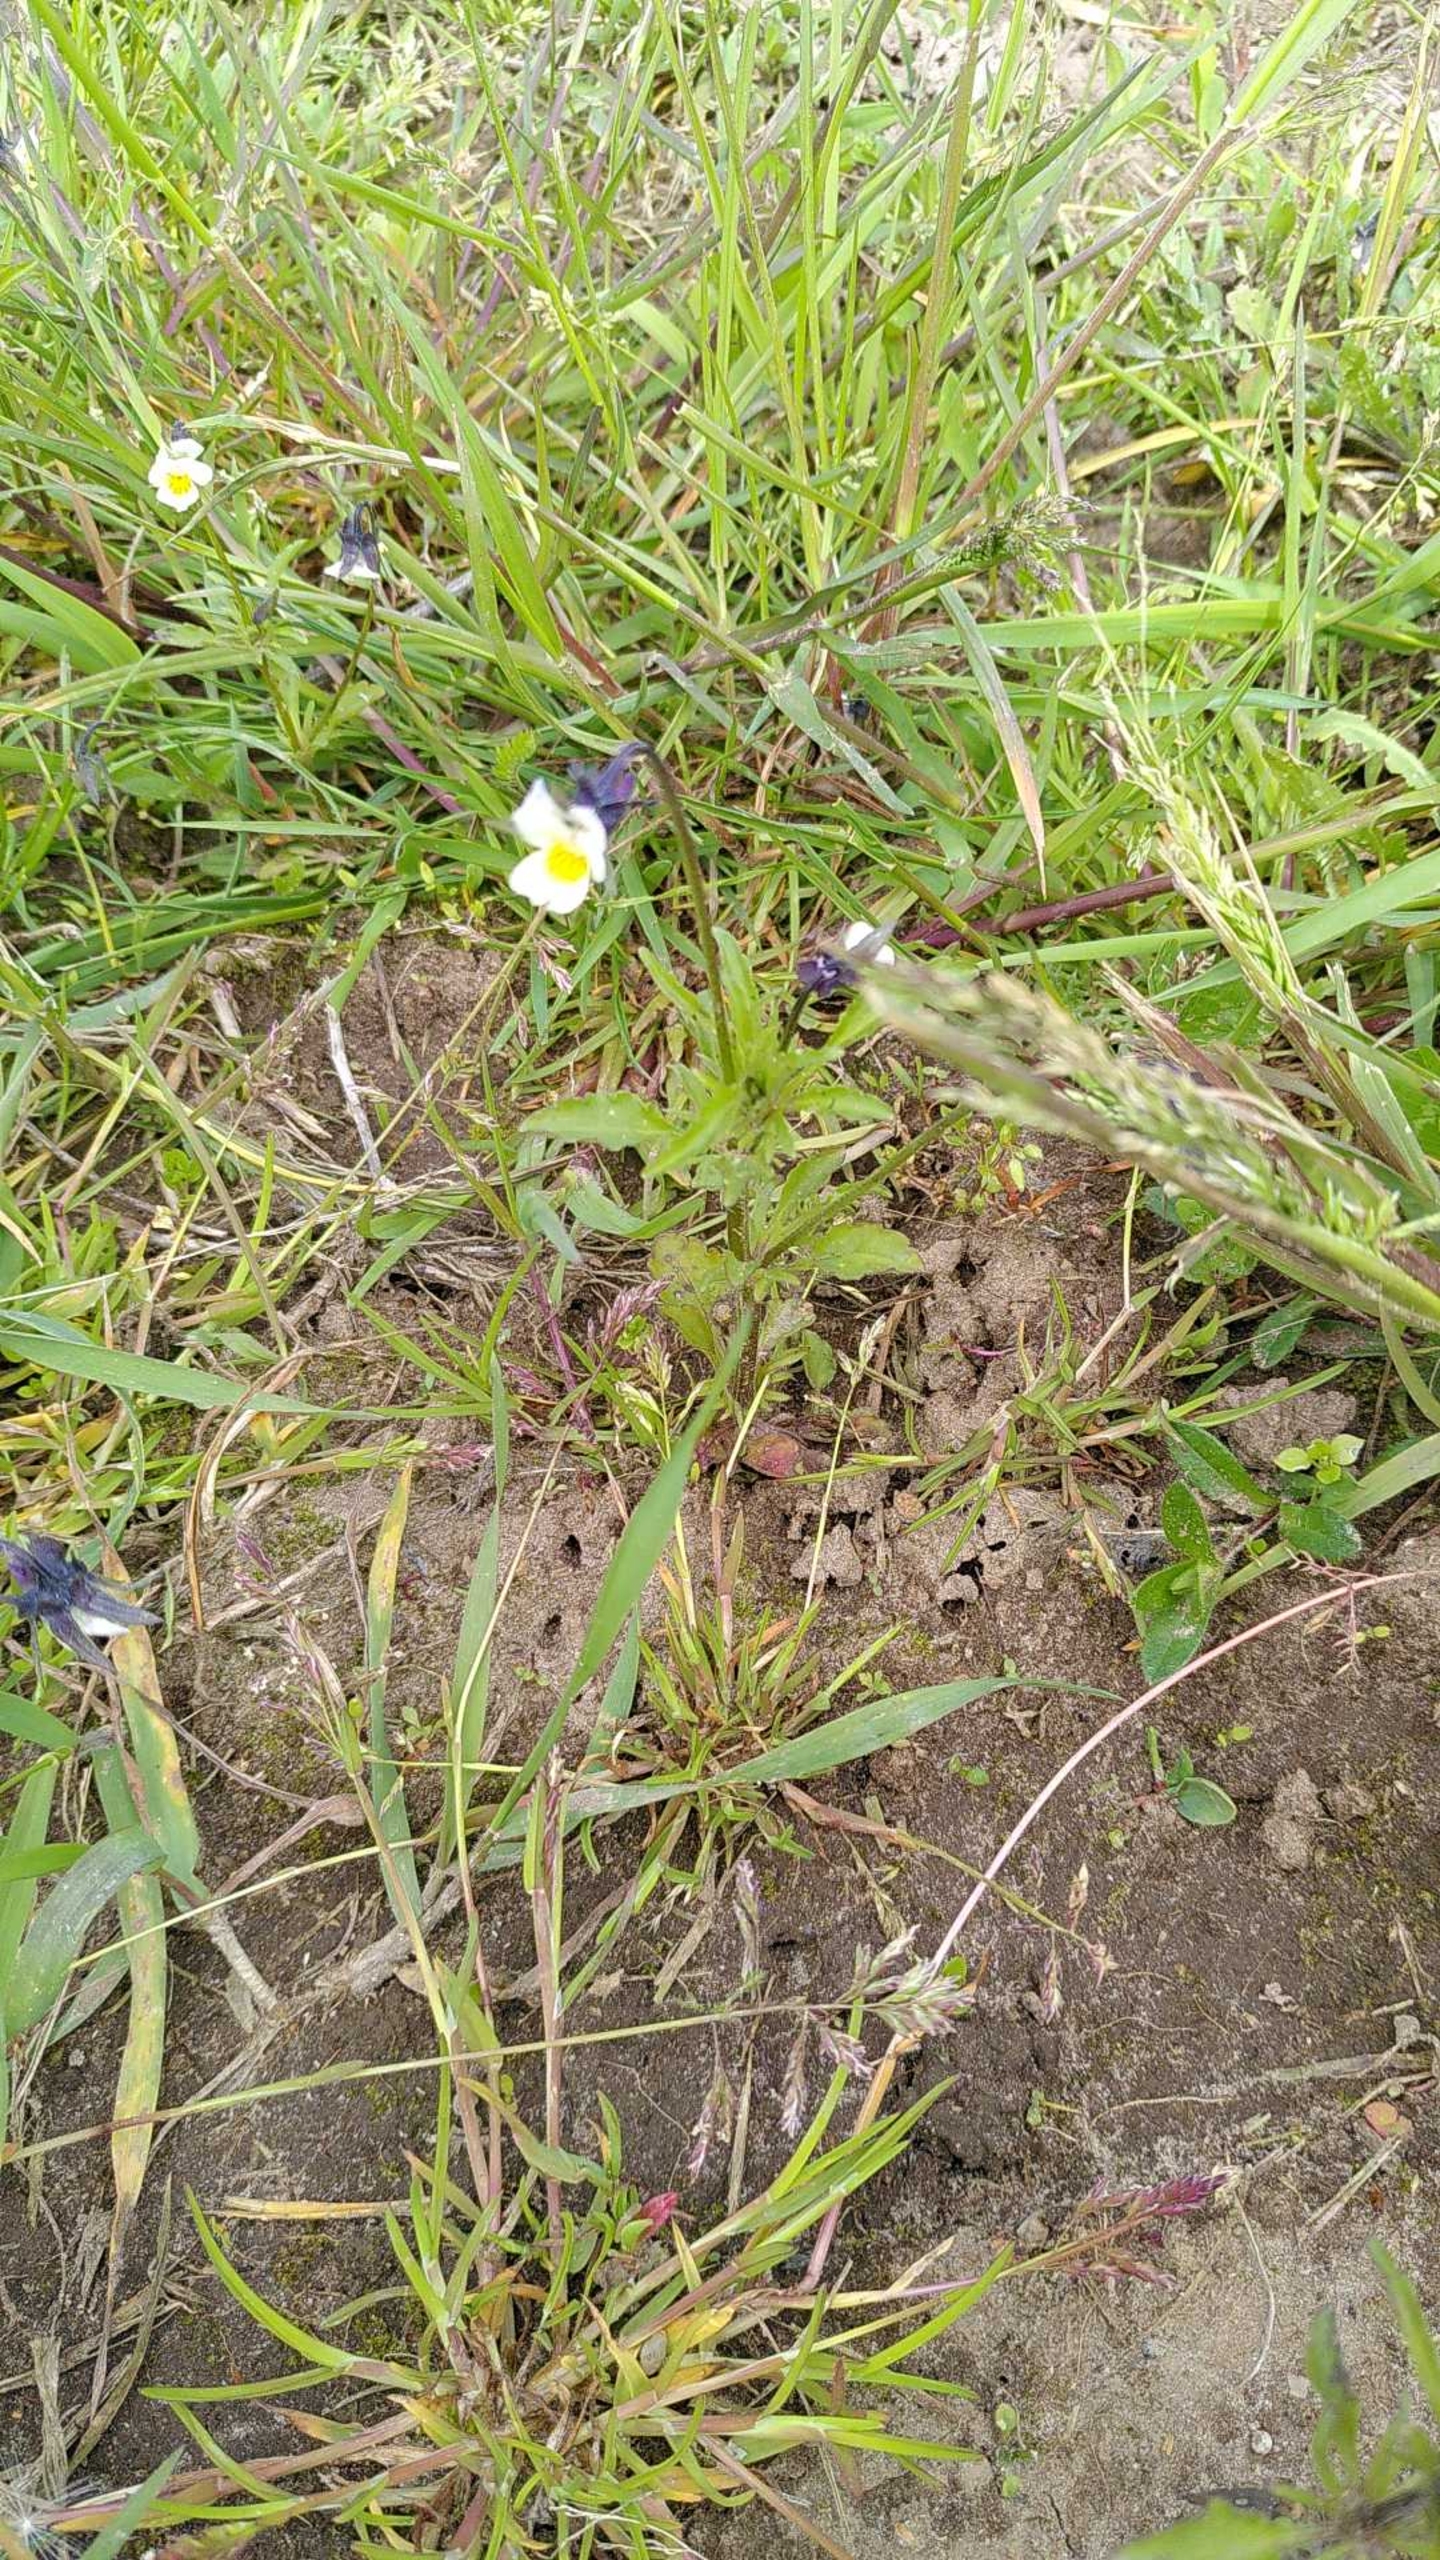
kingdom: Plantae
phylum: Tracheophyta
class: Magnoliopsida
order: Malpighiales
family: Violaceae
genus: Viola
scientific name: Viola arvensis
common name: Ager-stedmoderblomst
